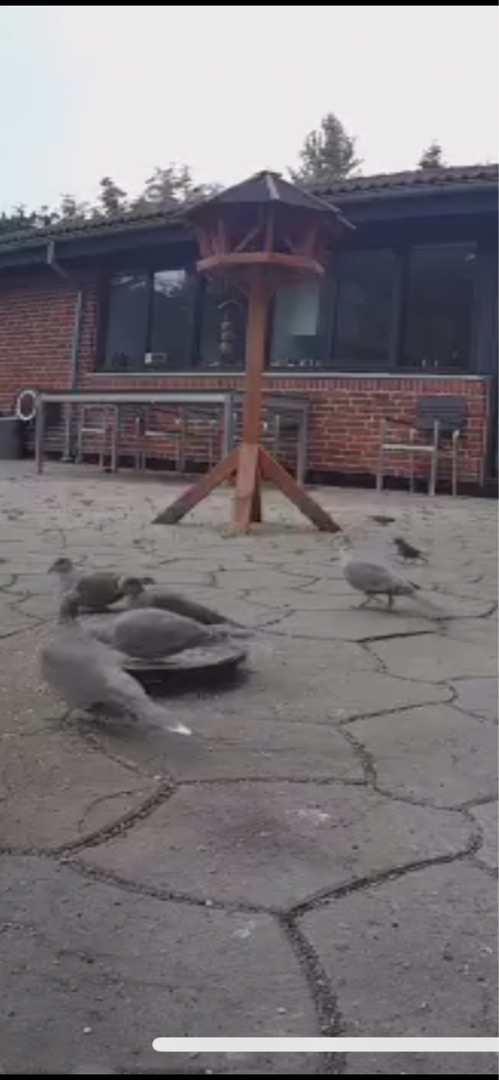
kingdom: Animalia
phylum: Chordata
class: Aves
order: Columbiformes
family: Columbidae
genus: Streptopelia
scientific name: Streptopelia decaocto
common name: Tyrkerdue
